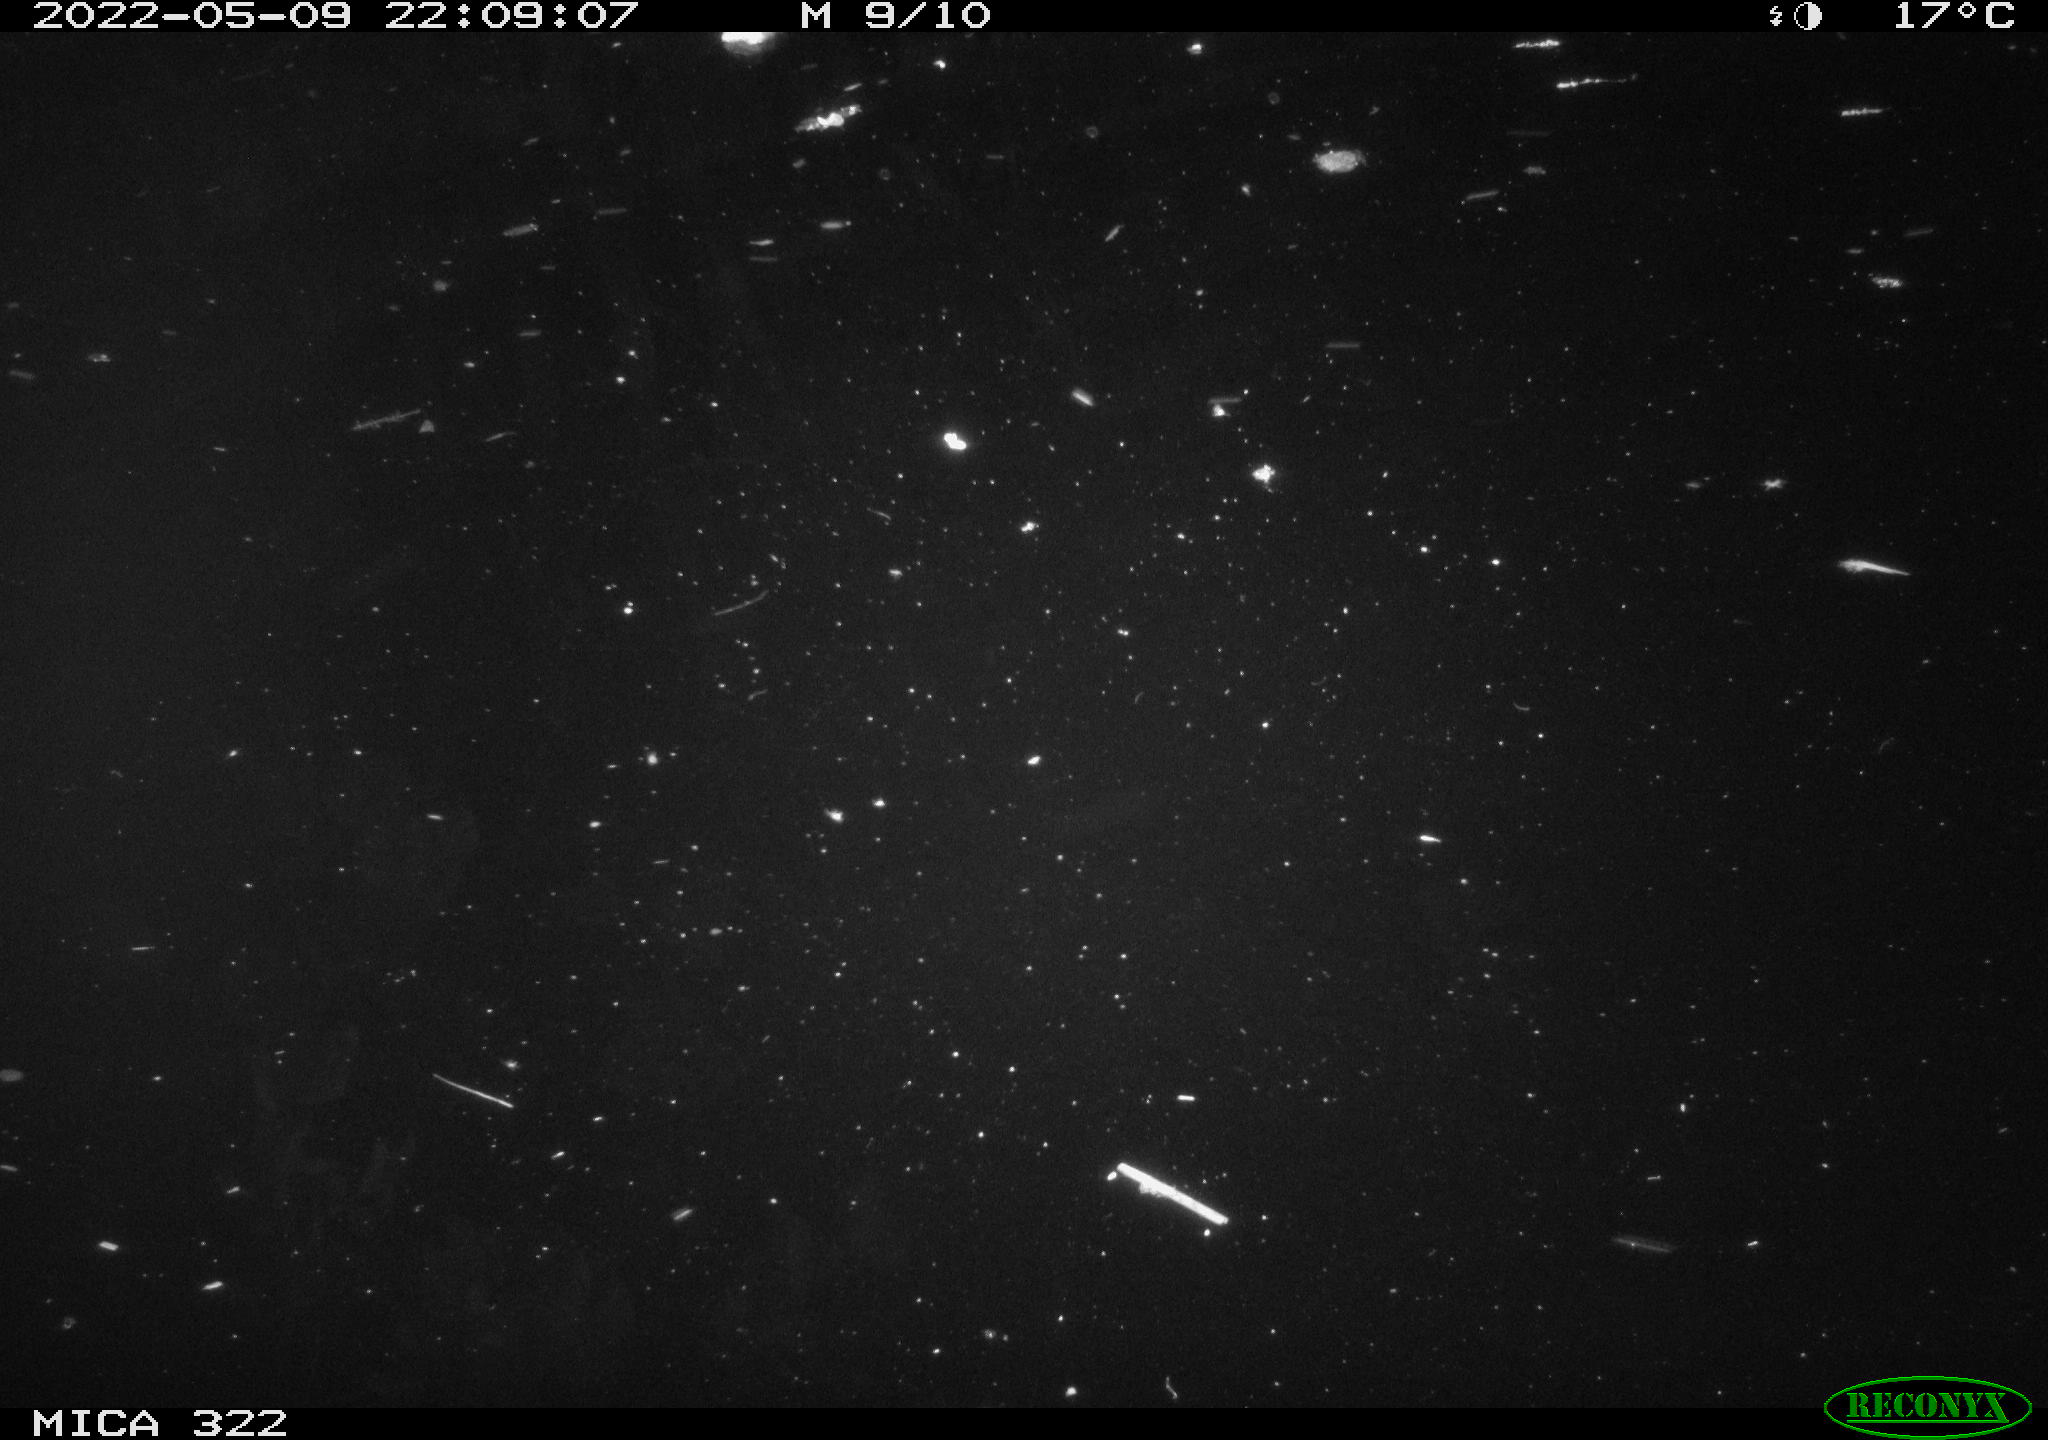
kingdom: Animalia
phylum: Chordata
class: Aves
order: Anseriformes
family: Anatidae
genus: Anas
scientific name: Anas platyrhynchos
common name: Mallard
